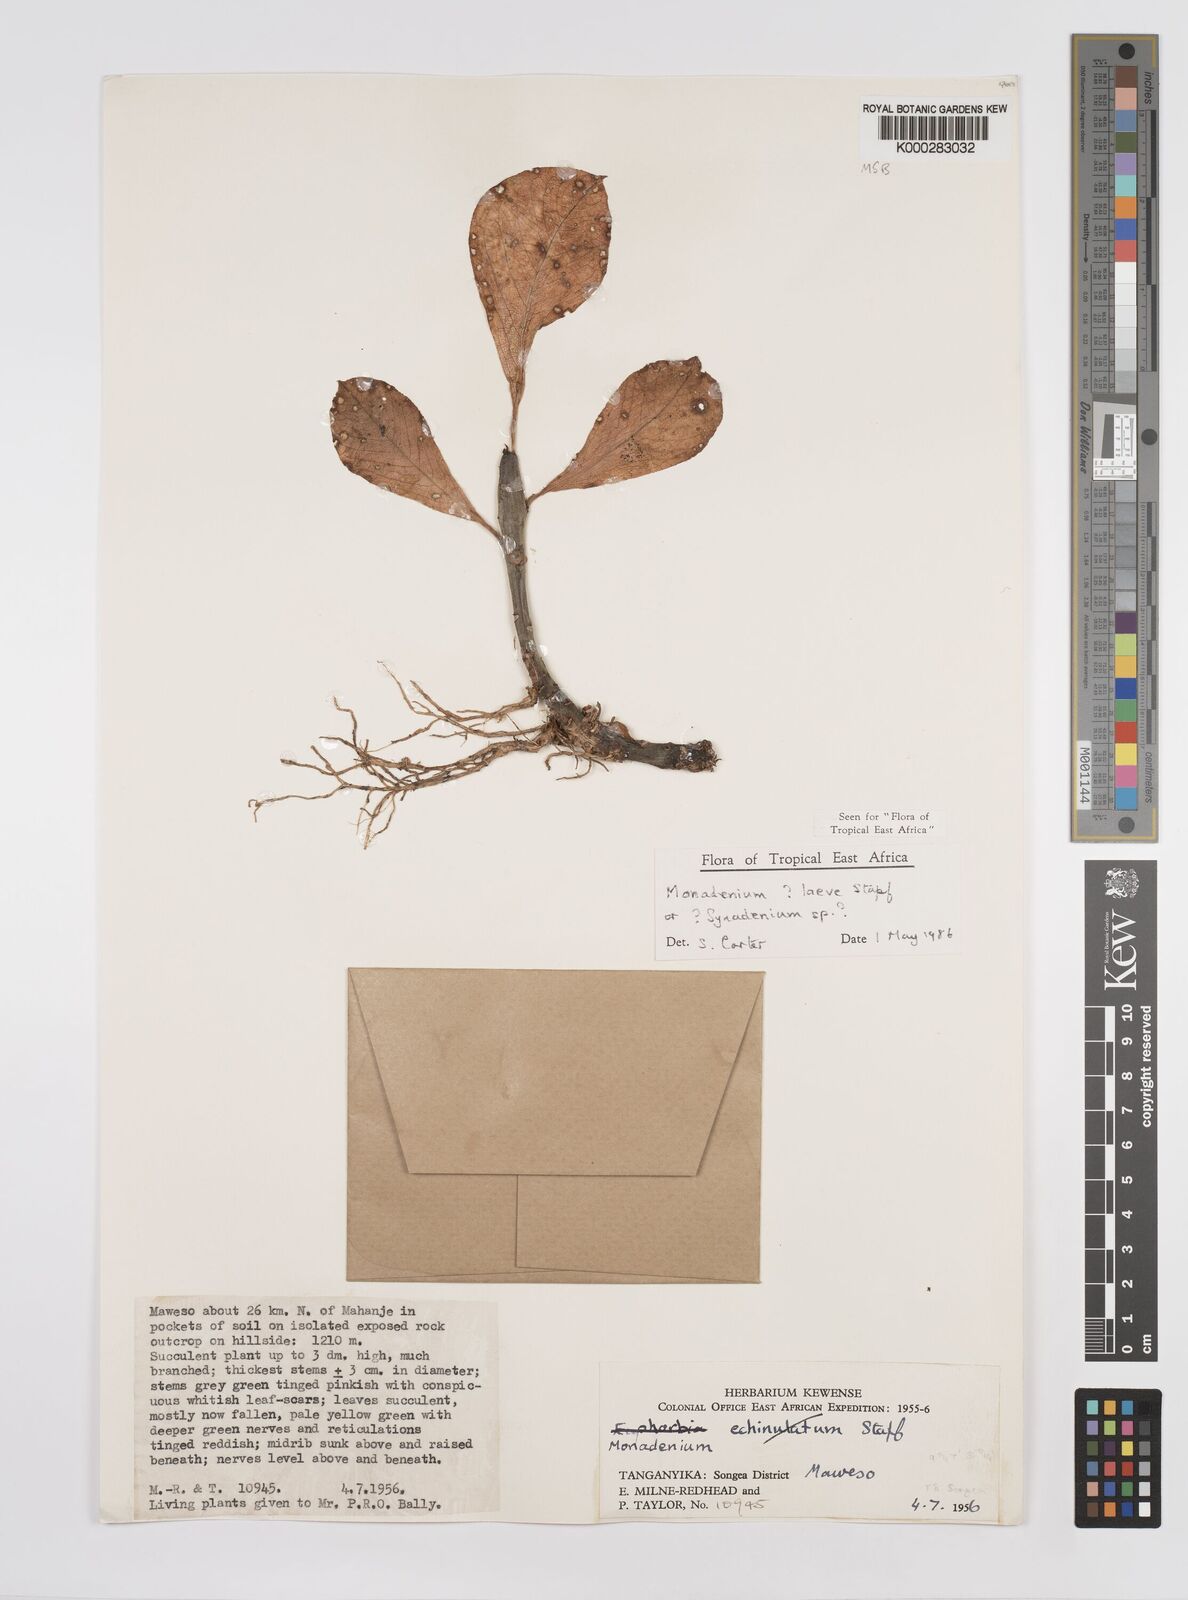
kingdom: Plantae
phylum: Tracheophyta
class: Magnoliopsida
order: Malpighiales
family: Euphorbiaceae
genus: Euphorbia
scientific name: Euphorbia pseudolaevis
